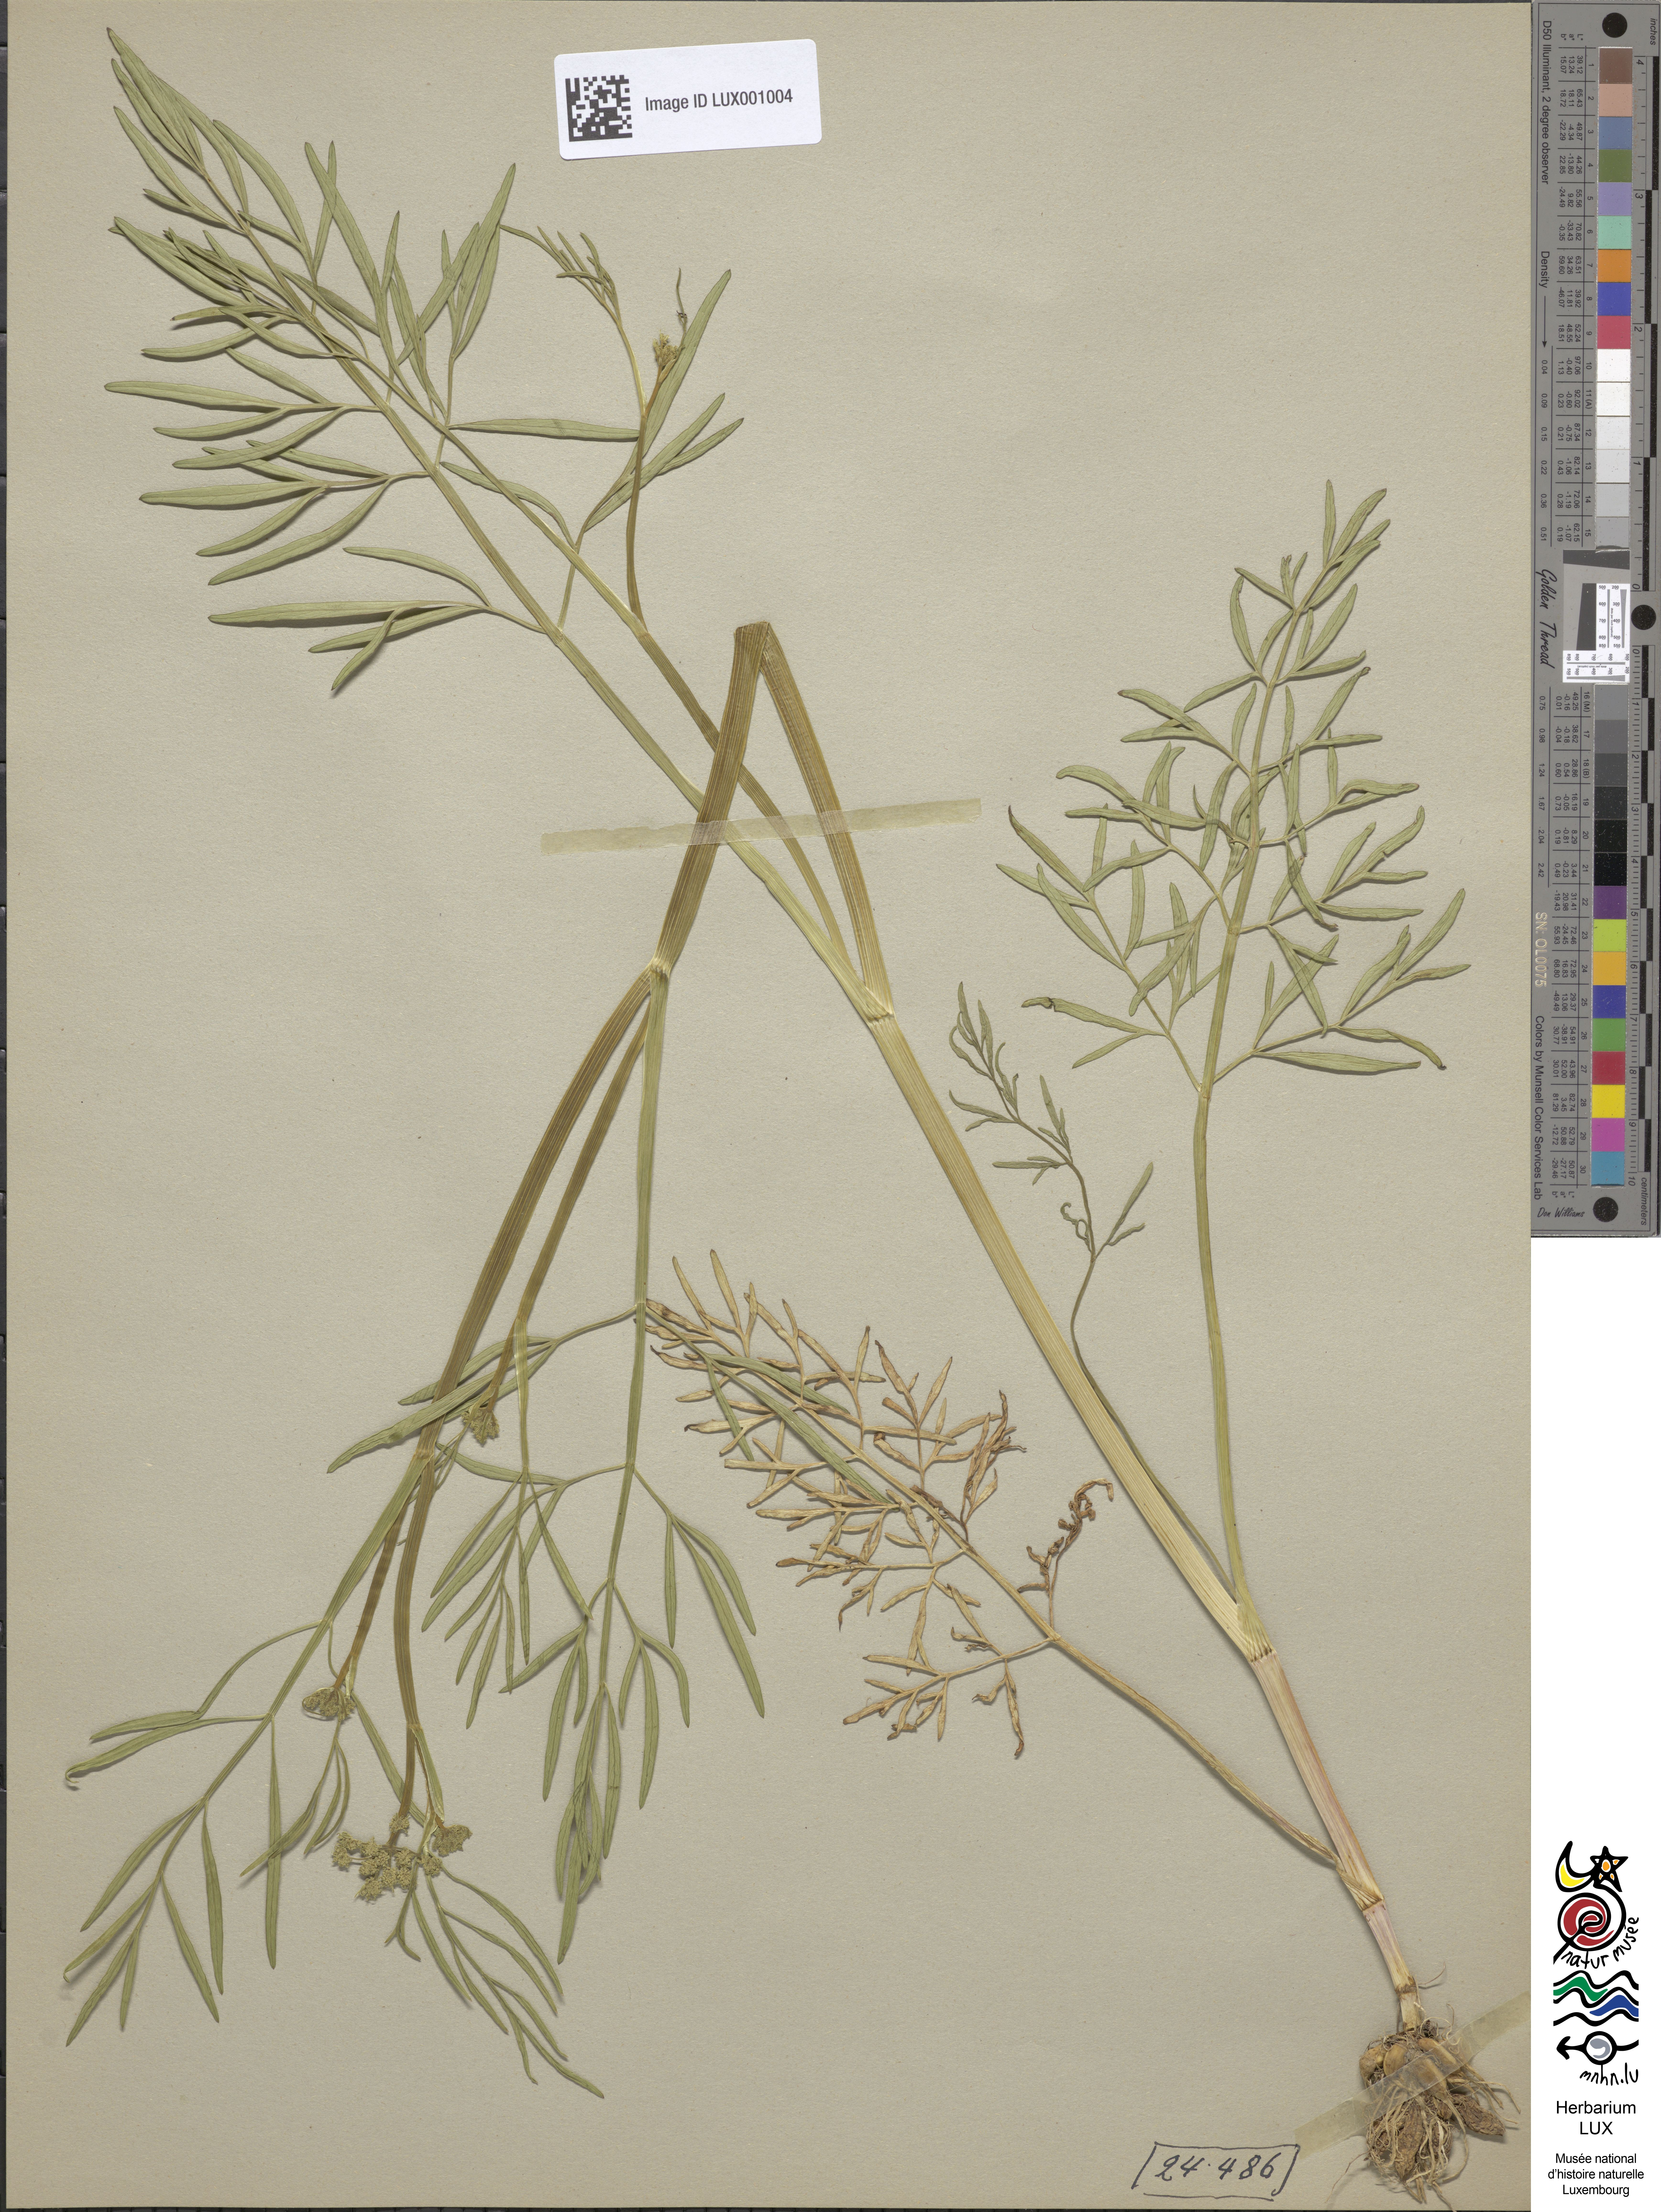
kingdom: Plantae
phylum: Tracheophyta
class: Magnoliopsida
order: Apiales
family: Apiaceae
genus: Oenanthe
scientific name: Oenanthe peucedanifolia
